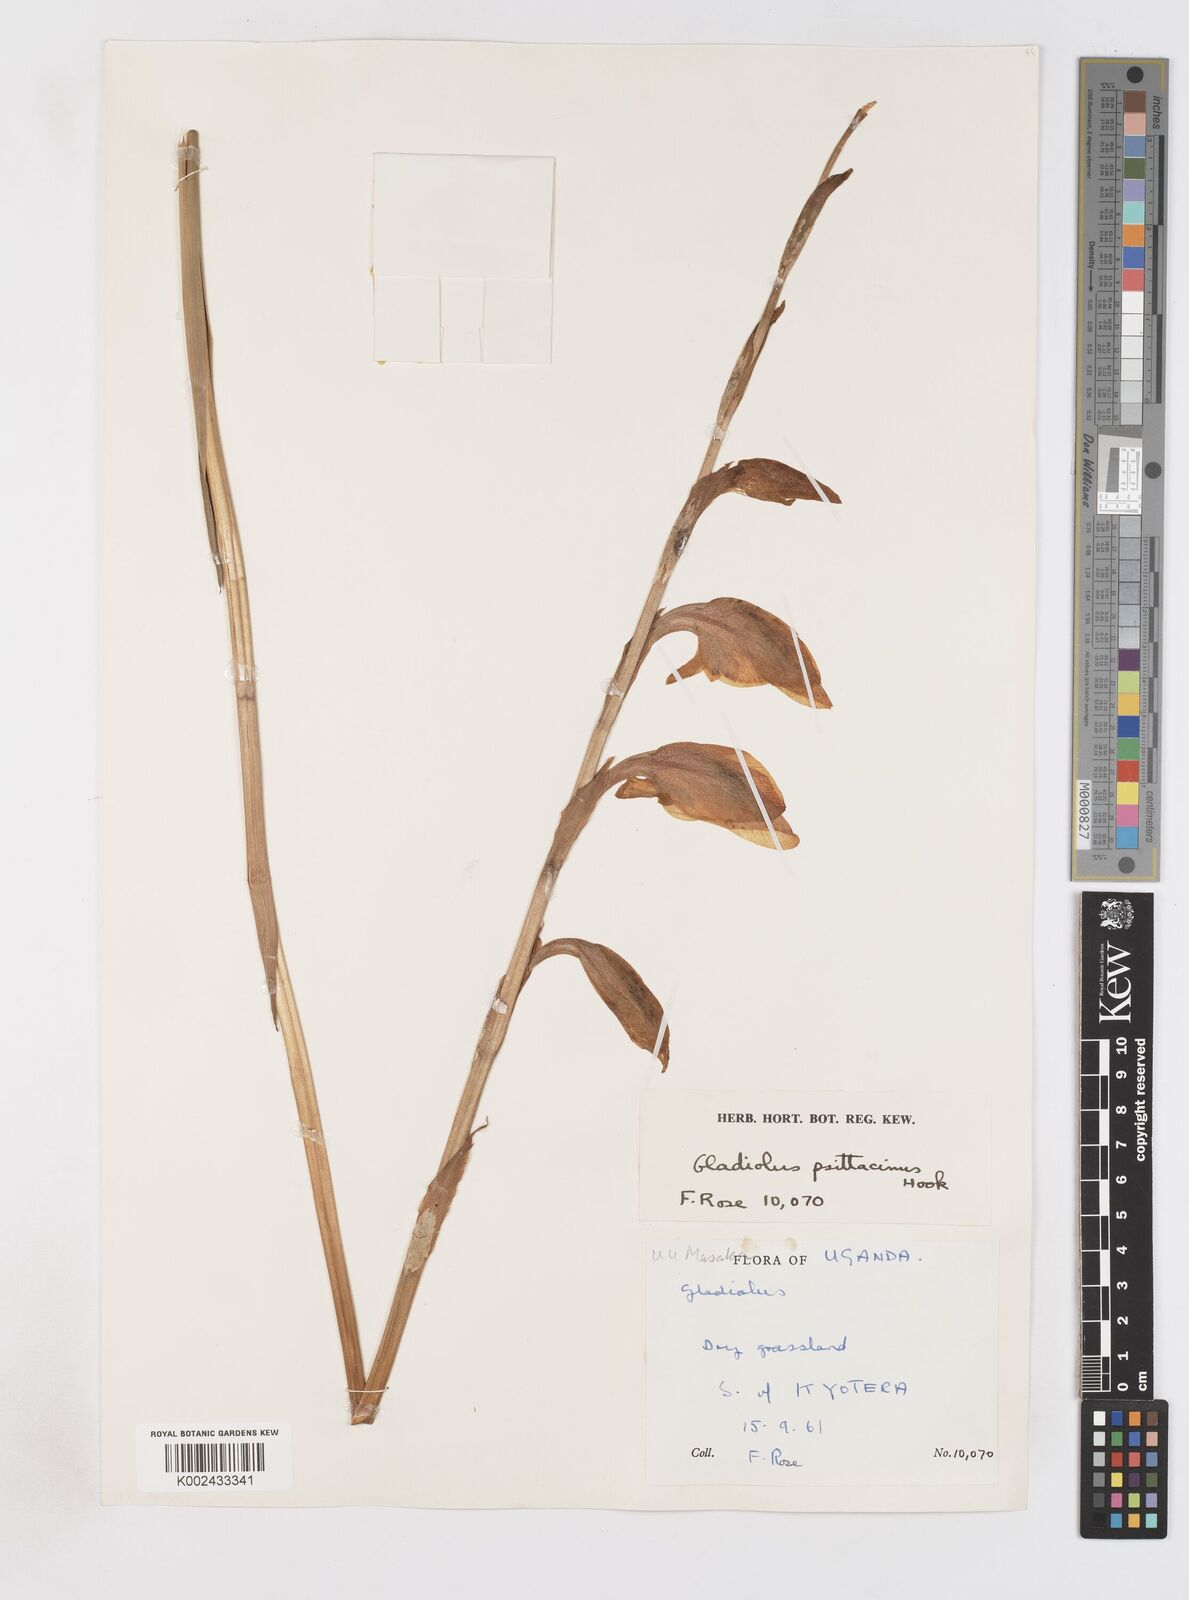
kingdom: Plantae
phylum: Tracheophyta
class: Liliopsida
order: Asparagales
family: Iridaceae
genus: Gladiolus
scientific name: Gladiolus dalenii
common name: Cornflag
